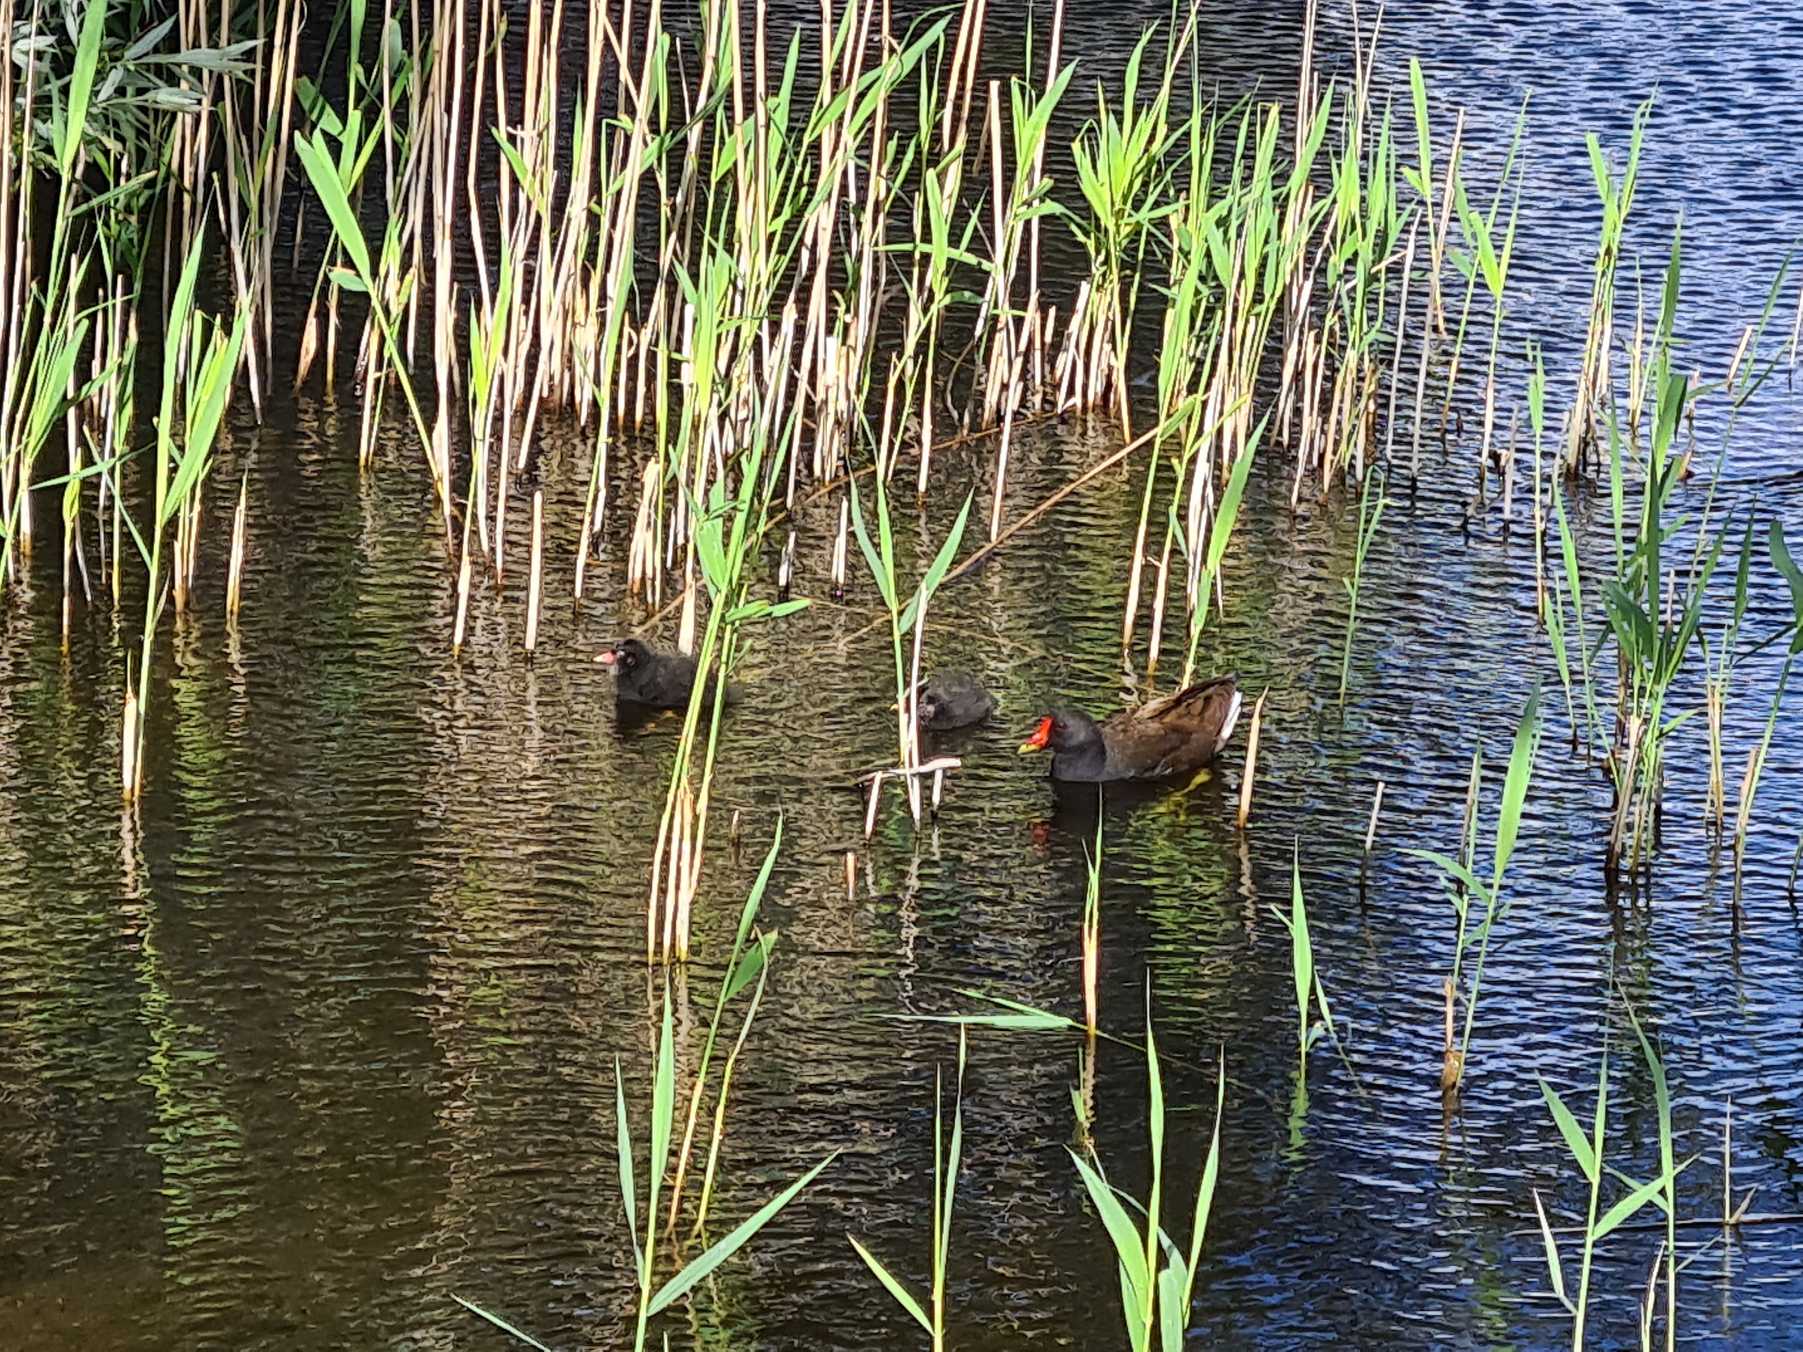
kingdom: Animalia
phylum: Chordata
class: Aves
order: Gruiformes
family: Rallidae
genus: Gallinula
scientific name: Gallinula chloropus
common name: Grønbenet rørhøne
